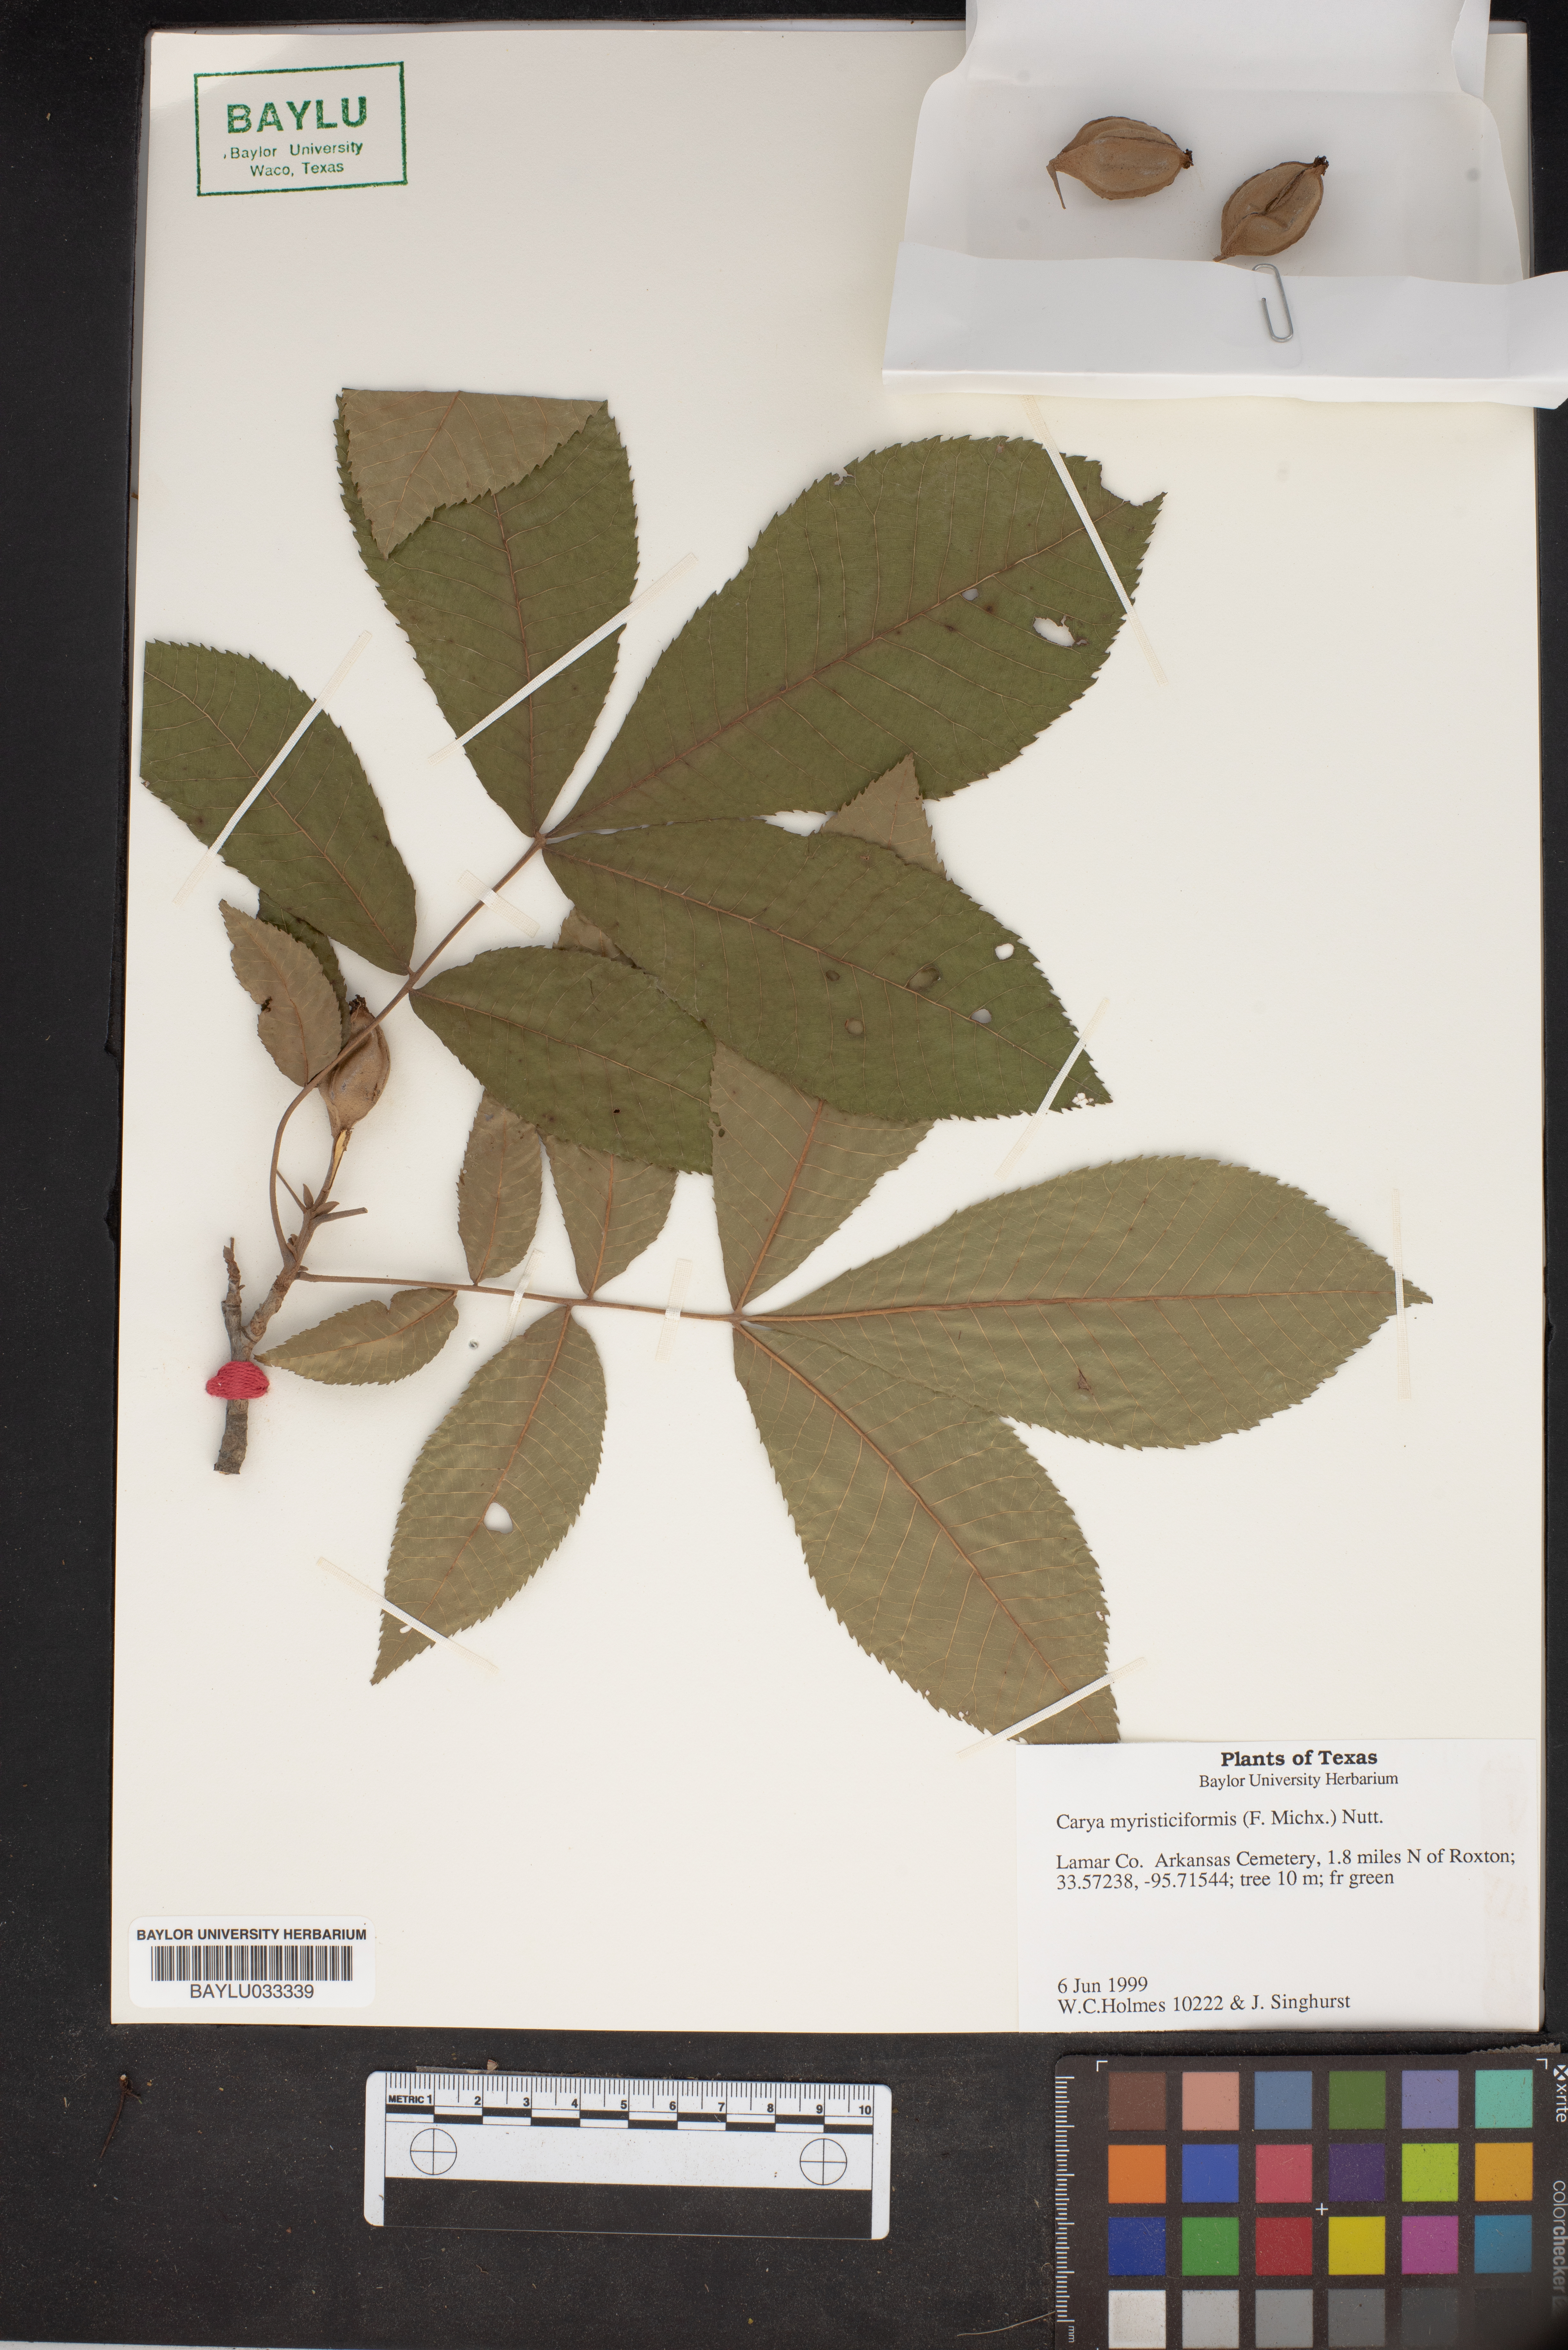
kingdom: Plantae
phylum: Tracheophyta
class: Magnoliopsida
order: Fagales
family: Juglandaceae
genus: Carya
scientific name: Carya myristiciformis
